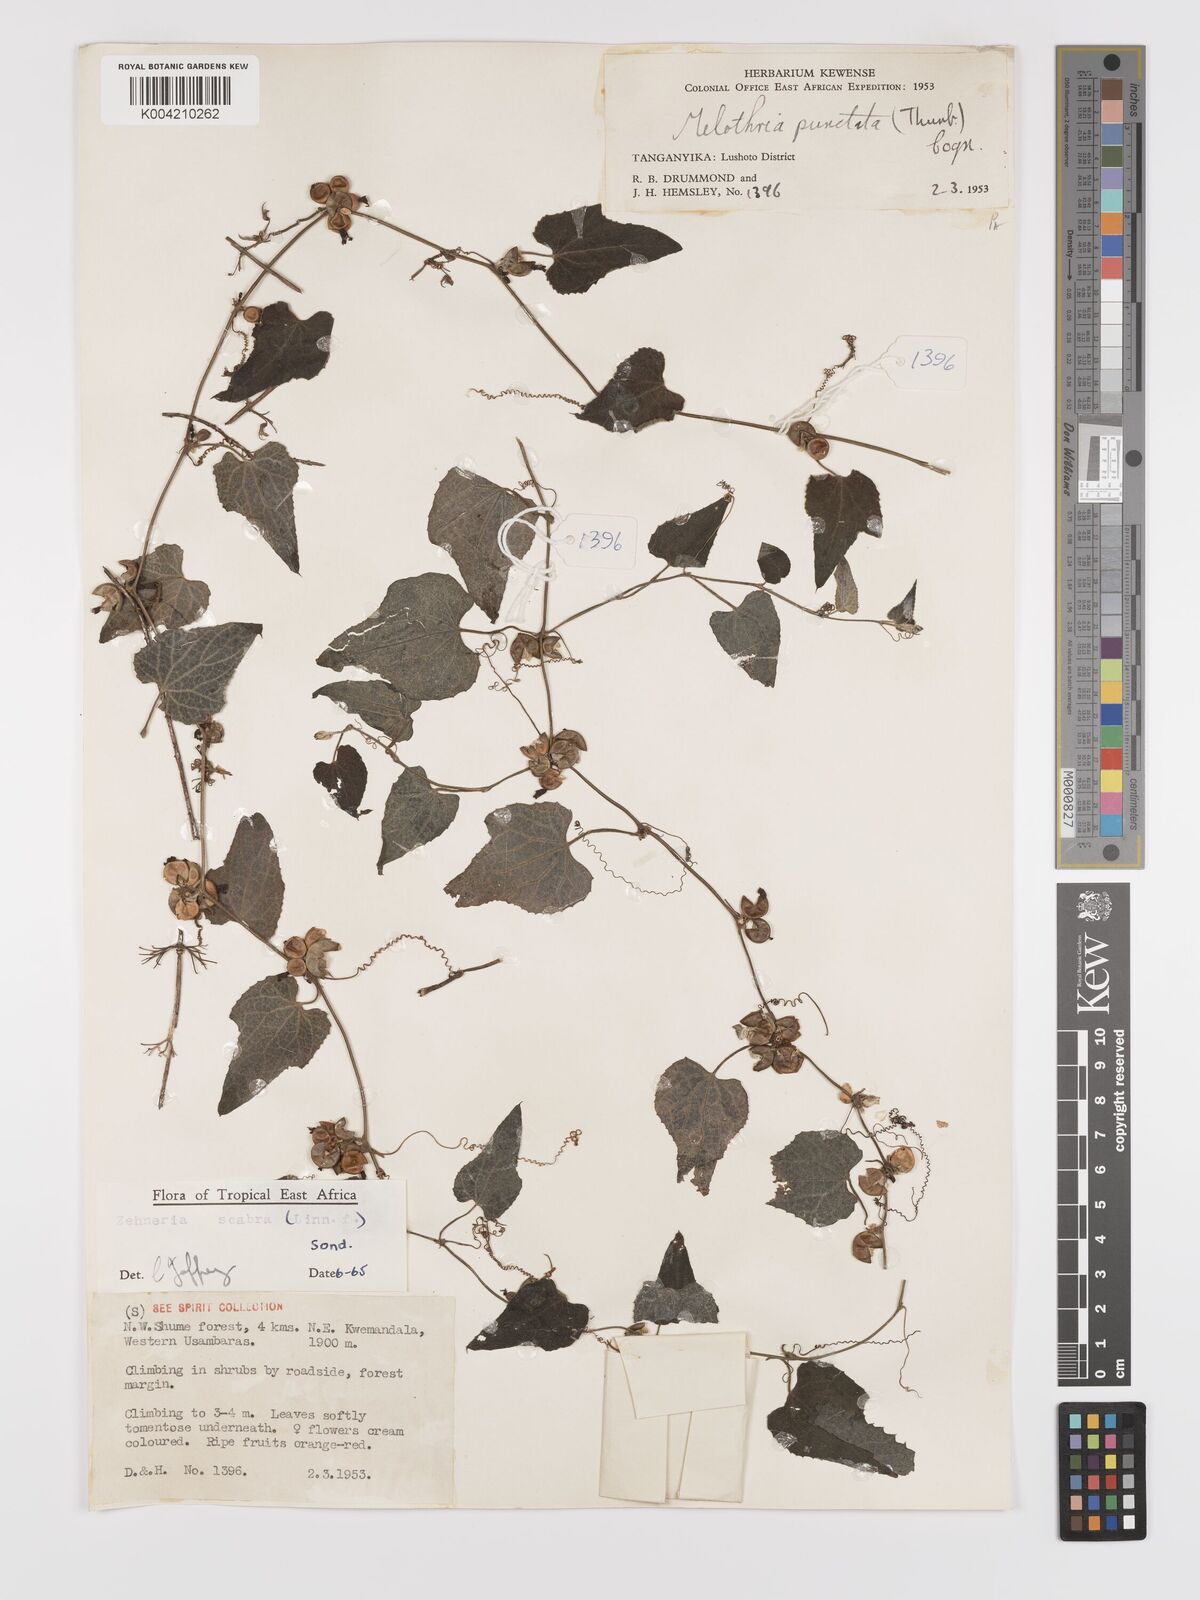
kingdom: Plantae
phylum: Tracheophyta
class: Magnoliopsida
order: Cucurbitales
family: Cucurbitaceae
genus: Zehneria
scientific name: Zehneria scabra
